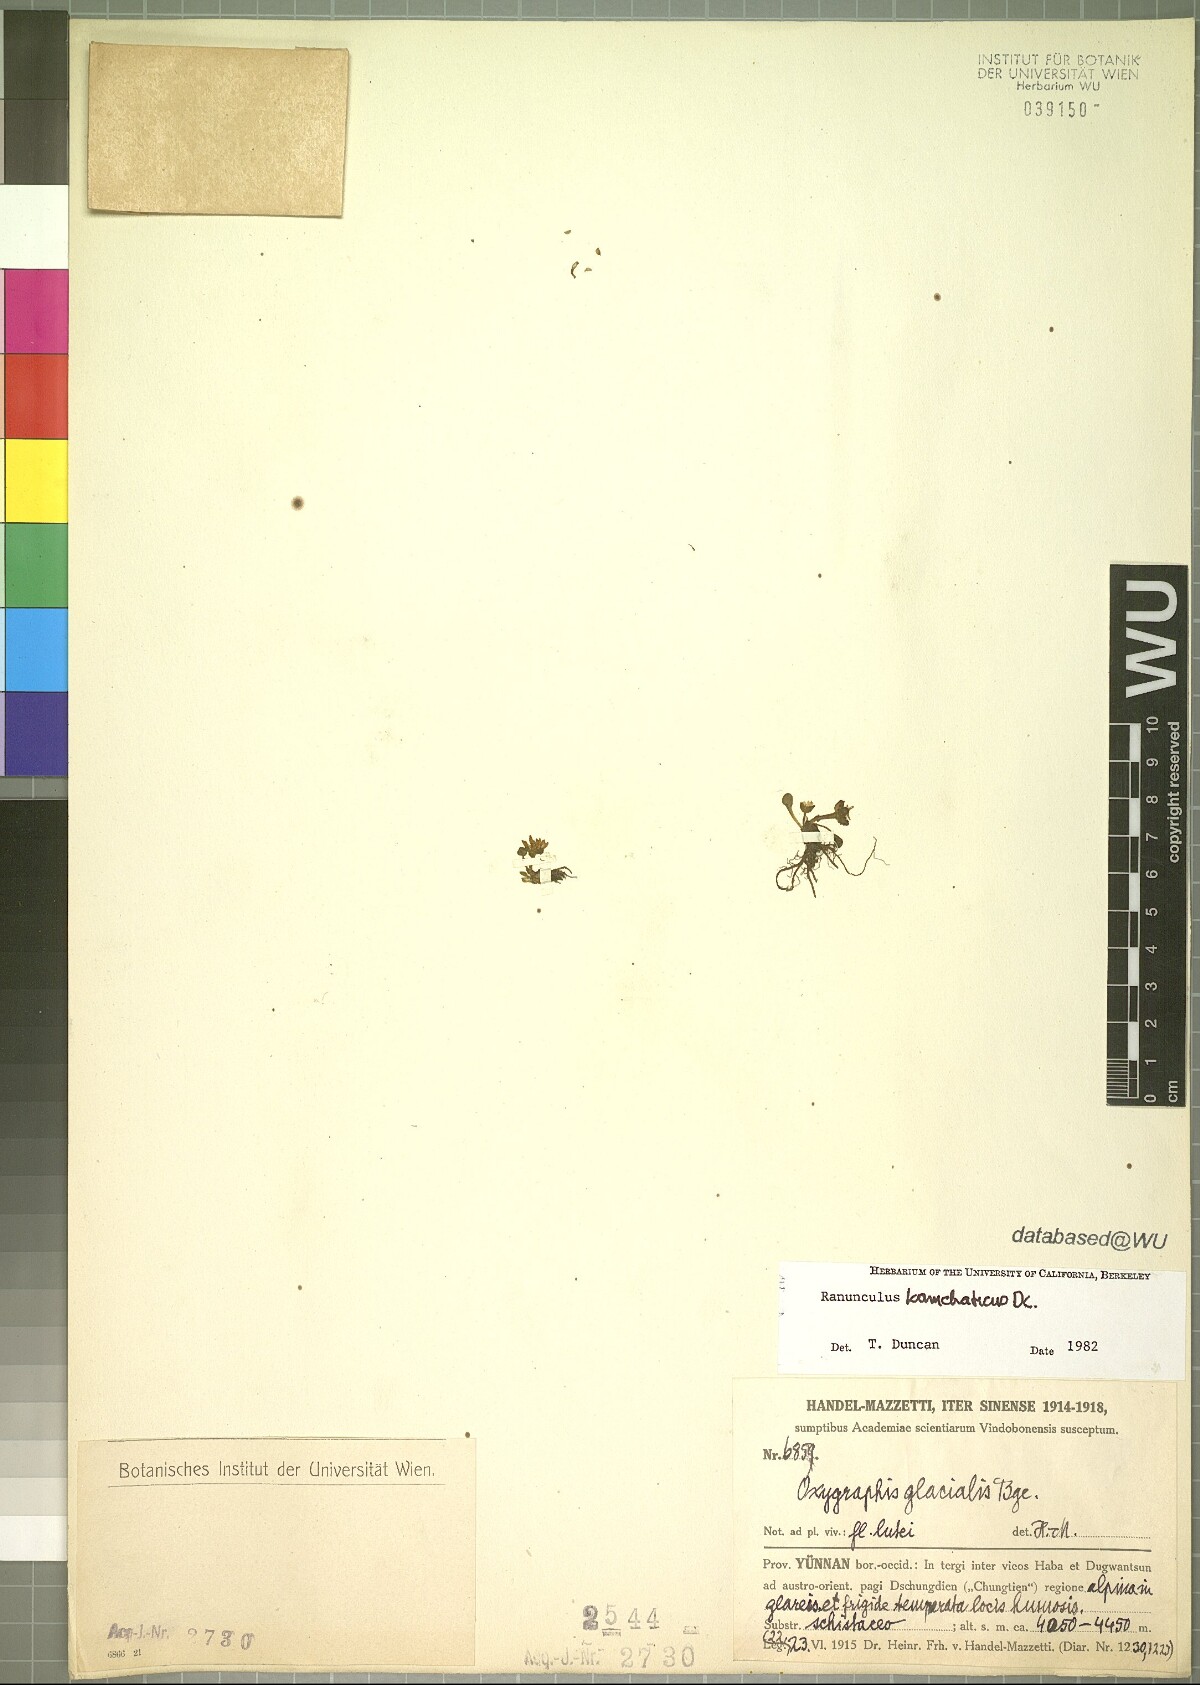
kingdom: Plantae
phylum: Tracheophyta
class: Magnoliopsida
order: Ranunculales
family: Ranunculaceae
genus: Oxygraphis
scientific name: Oxygraphis kamchatica
